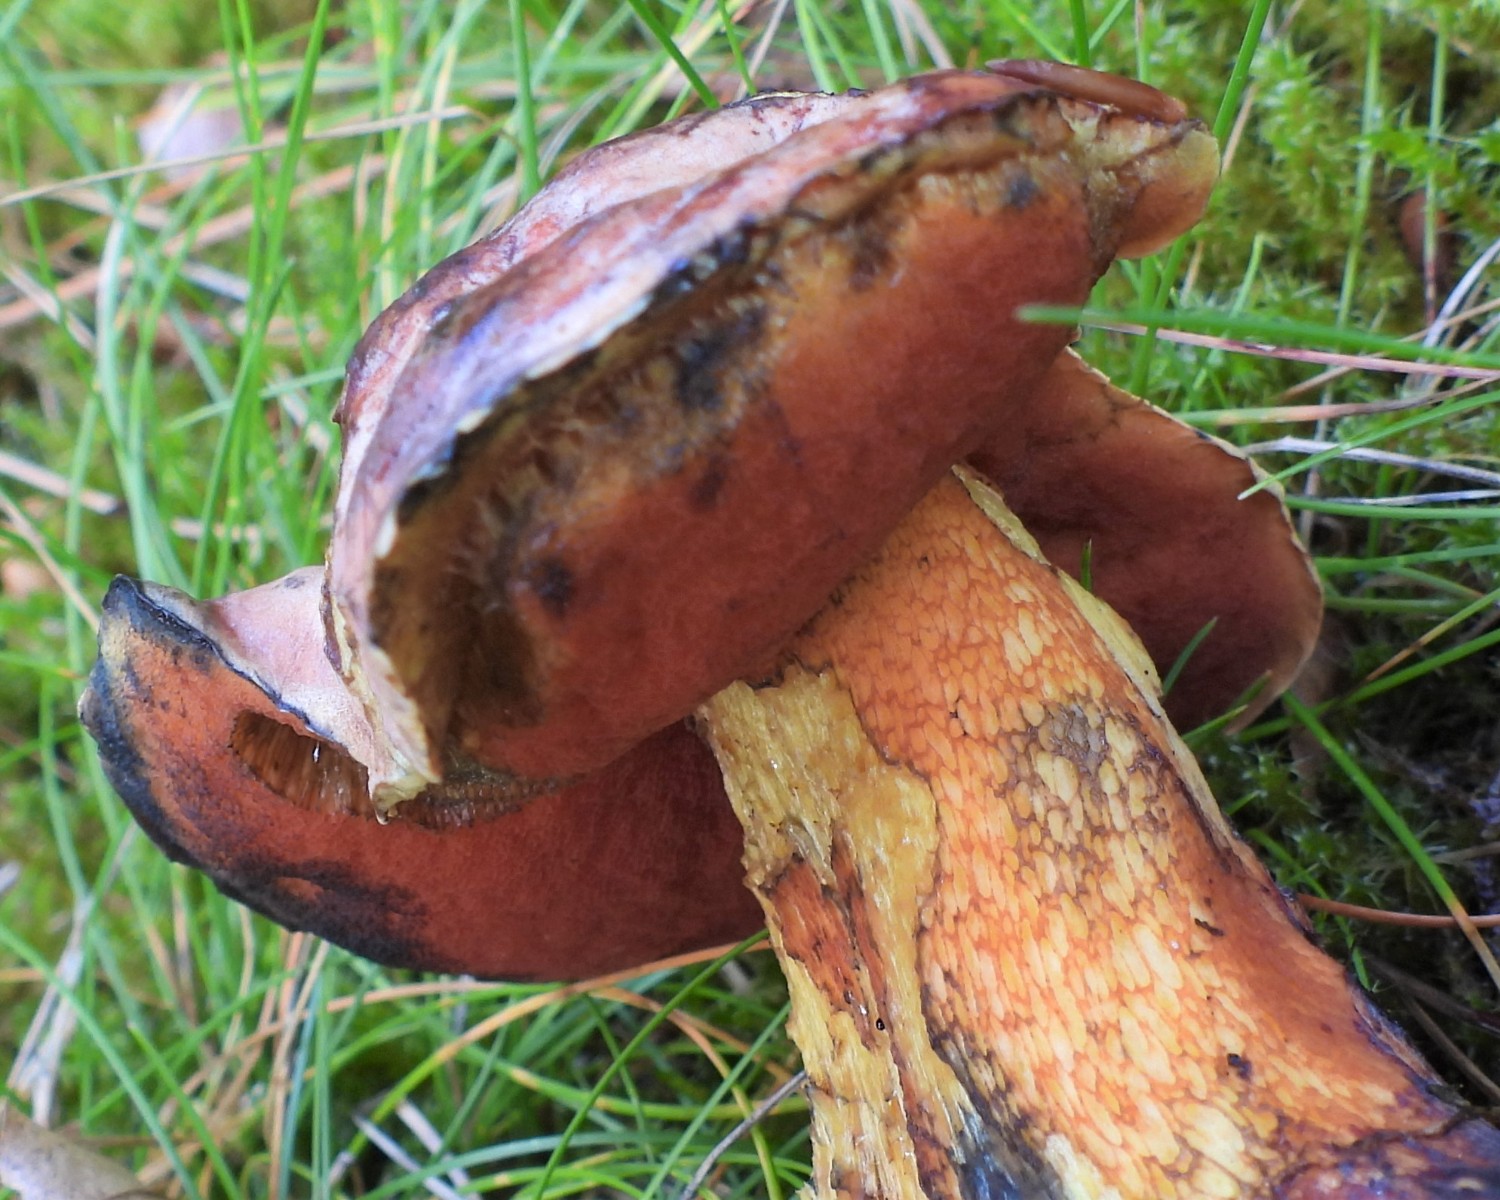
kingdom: Fungi
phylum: Basidiomycota
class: Agaricomycetes
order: Boletales
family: Boletaceae
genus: Suillellus
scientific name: Suillellus luridus
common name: netstokket indigorørhat
